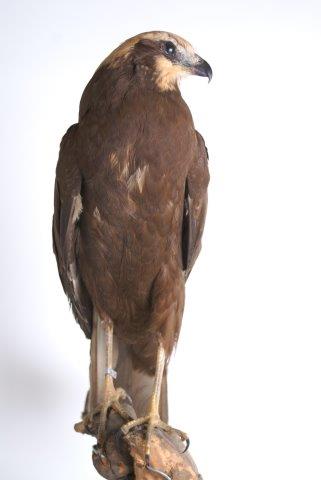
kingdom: Animalia
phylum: Chordata
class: Aves
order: Accipitriformes
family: Accipitridae
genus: Circus
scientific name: Circus aeruginosus
